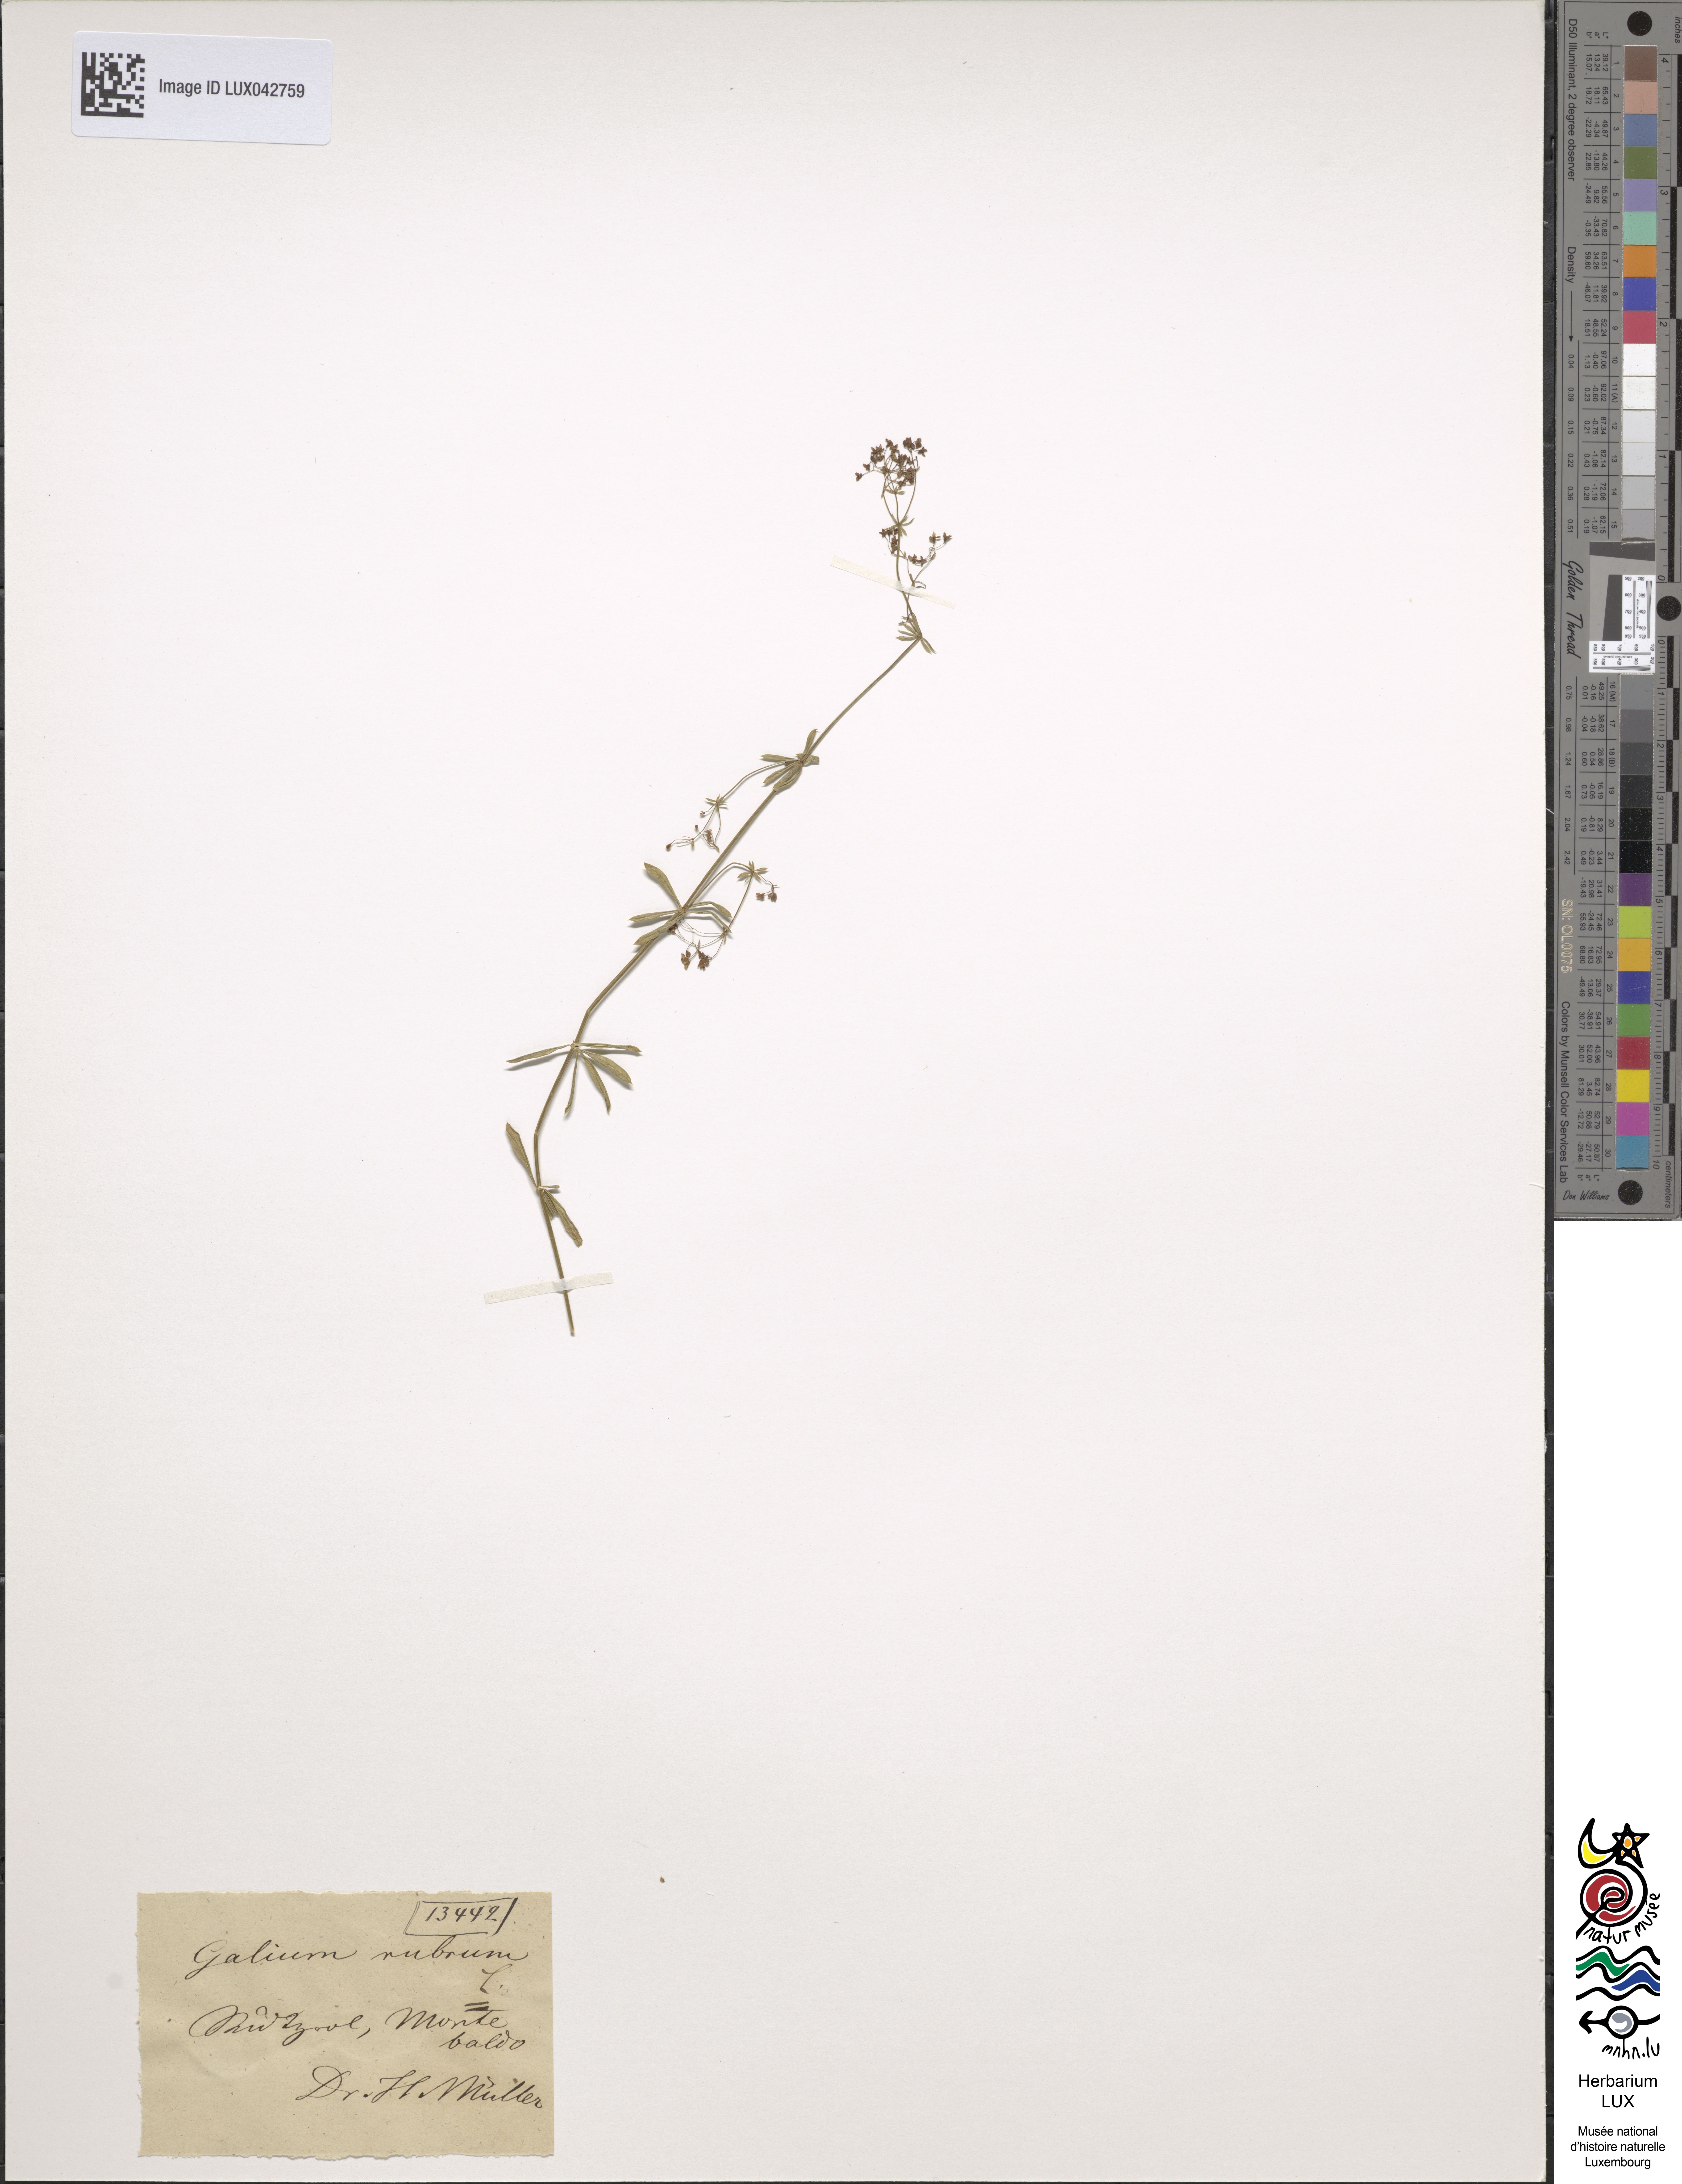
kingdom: Plantae
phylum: Tracheophyta
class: Magnoliopsida
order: Gentianales
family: Rubiaceae
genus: Galium
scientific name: Galium rubrum
